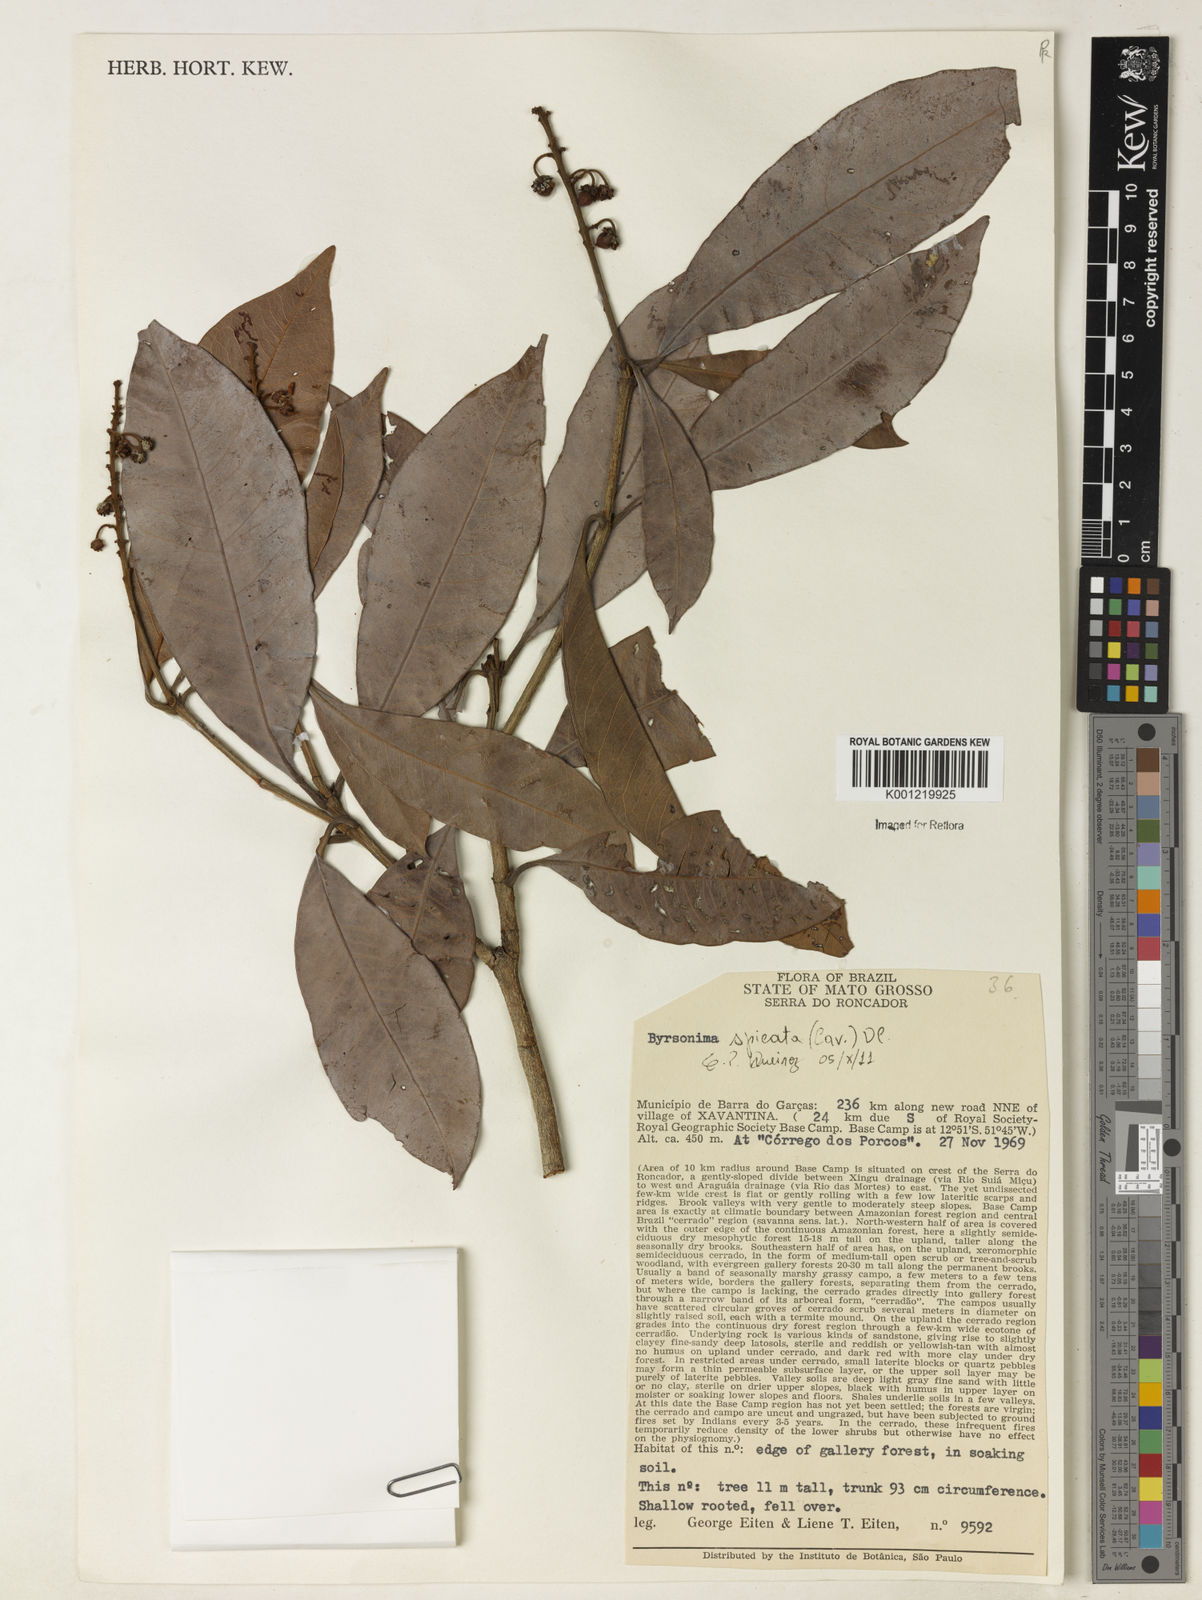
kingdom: Plantae
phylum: Tracheophyta
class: Magnoliopsida
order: Malpighiales
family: Malpighiaceae
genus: Byrsonima
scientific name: Byrsonima
